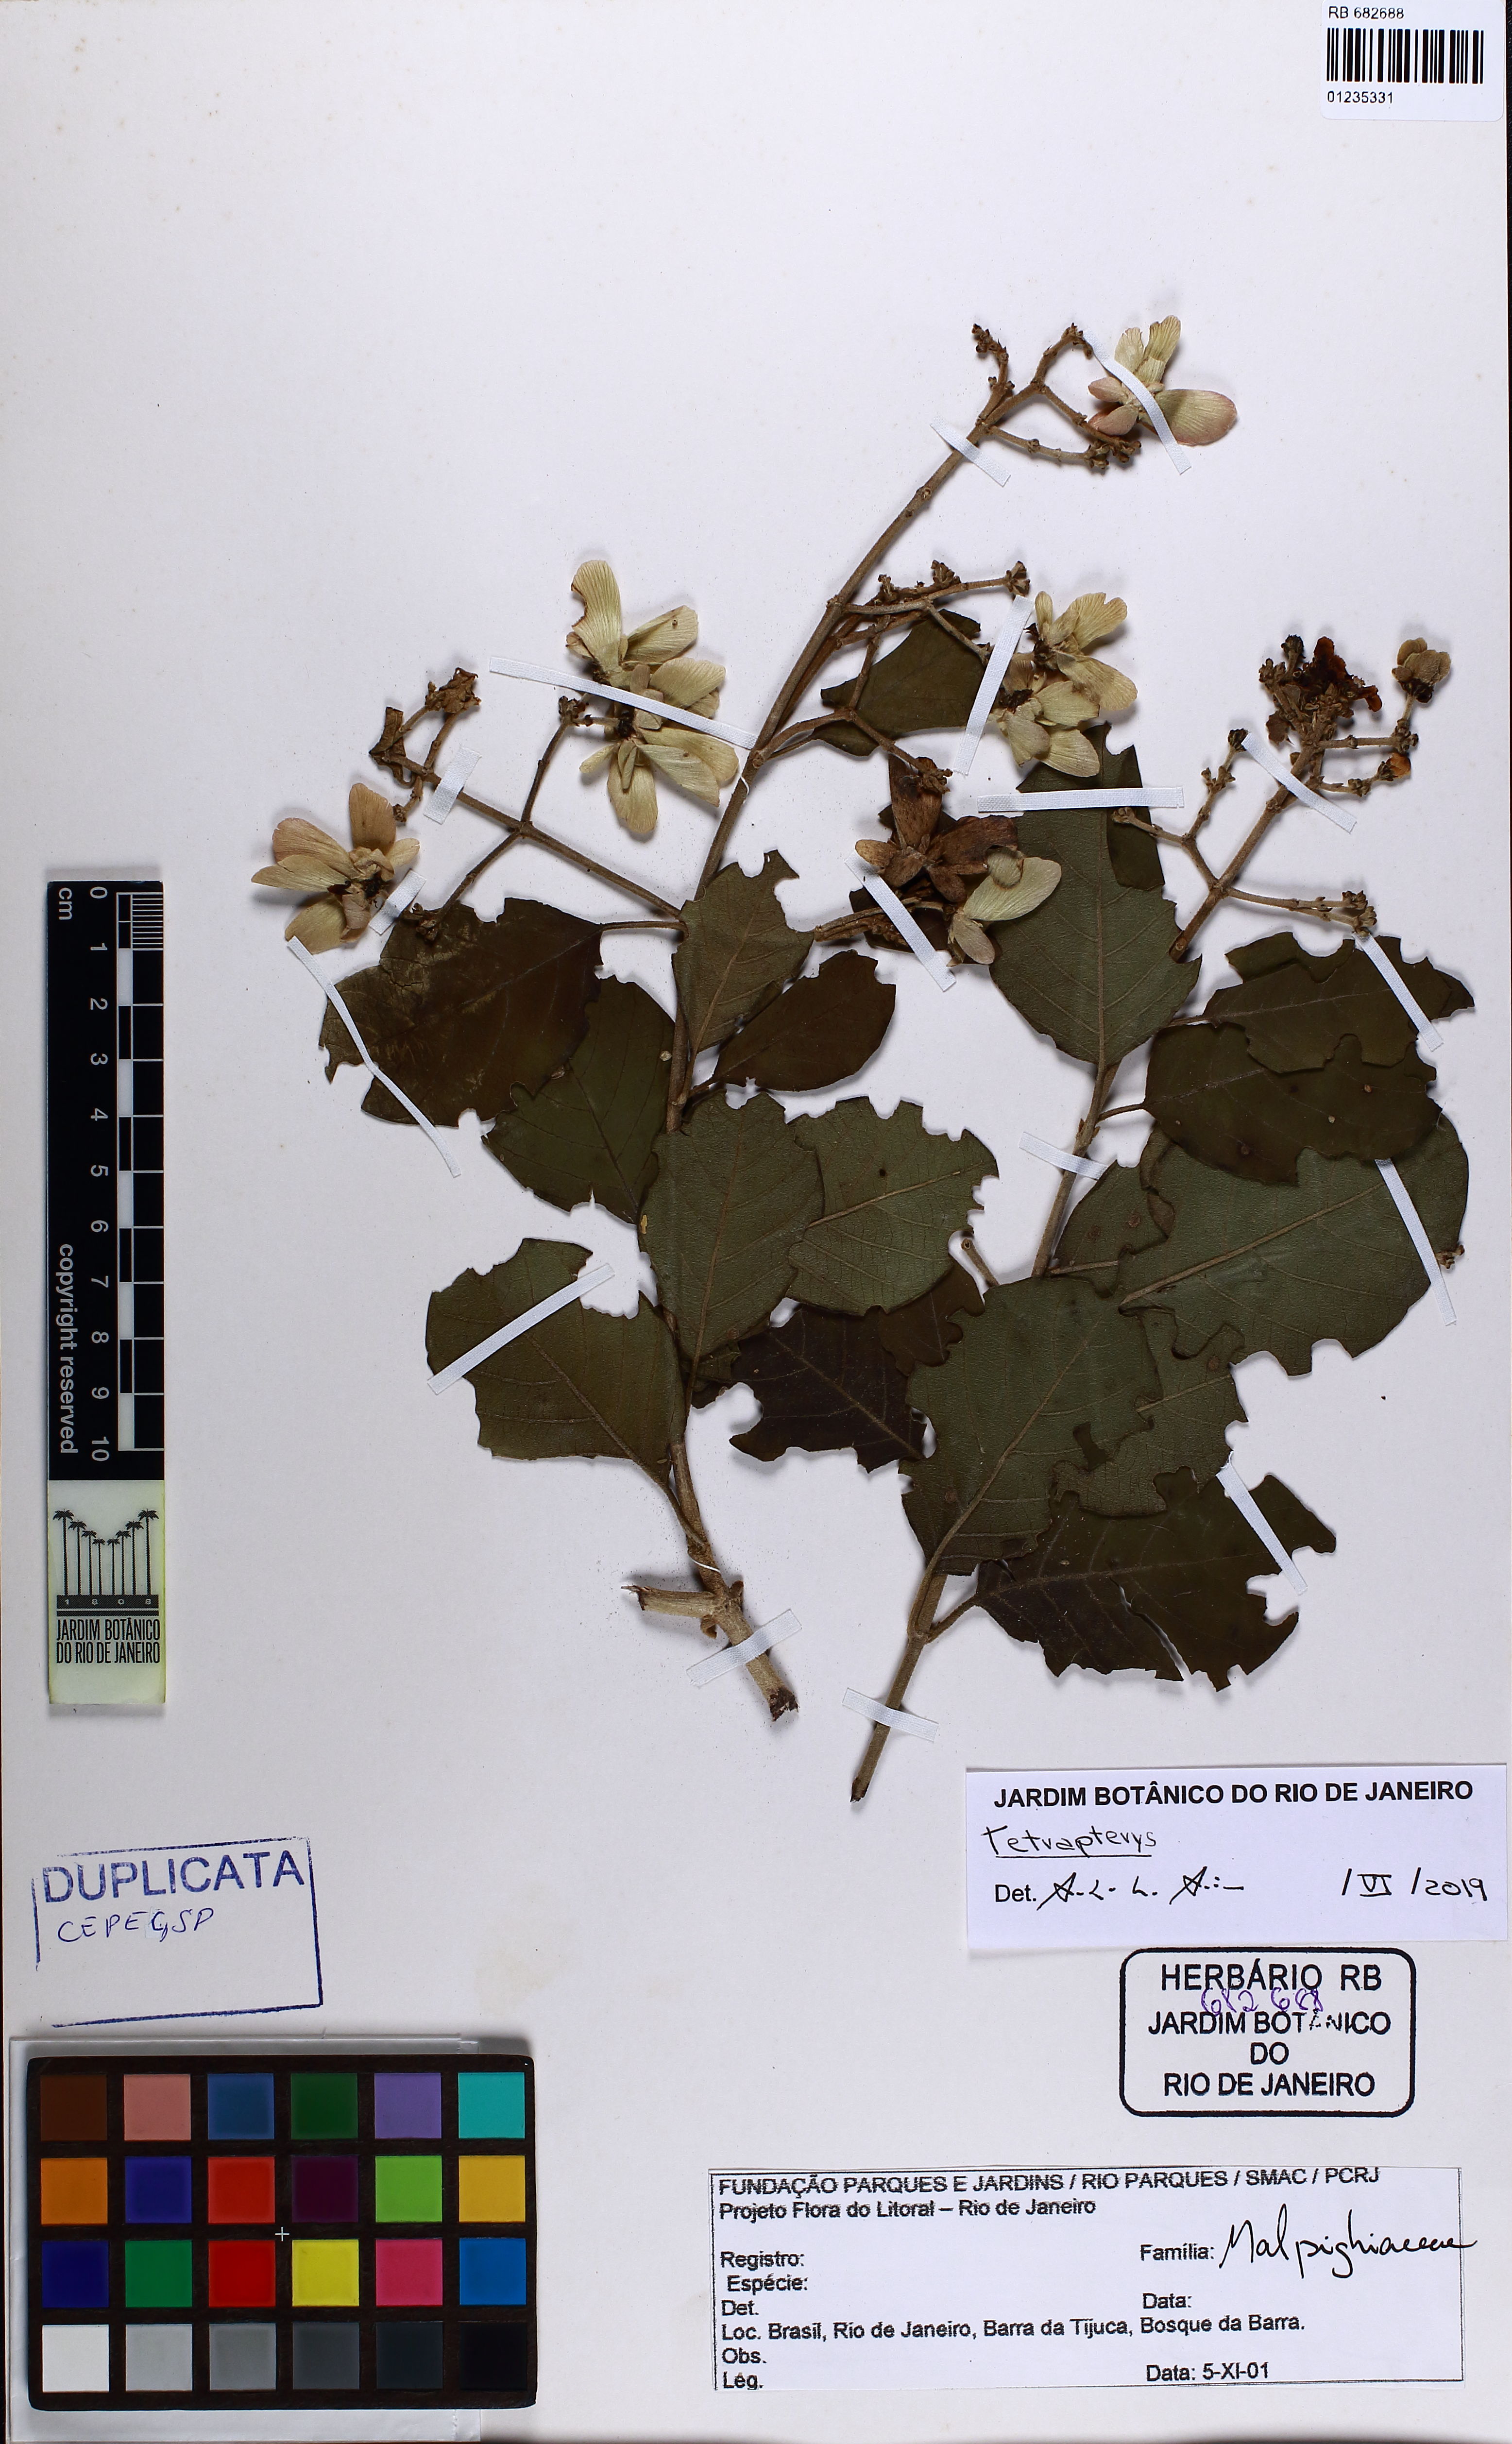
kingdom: Plantae
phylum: Tracheophyta
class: Magnoliopsida
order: Malpighiales
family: Malpighiaceae
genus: Tetrapterys
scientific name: Tetrapterys
